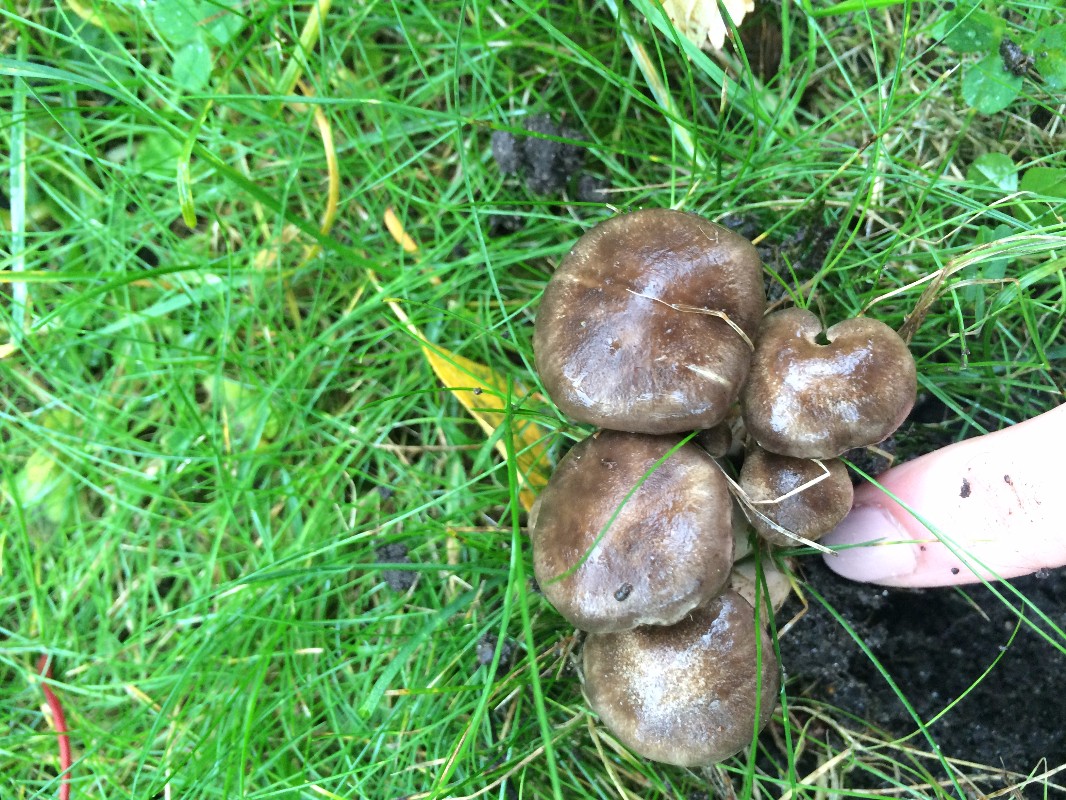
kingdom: Fungi
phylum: Basidiomycota
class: Agaricomycetes
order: Agaricales
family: Lyophyllaceae
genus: Lyophyllum
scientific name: Lyophyllum decastes
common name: røggrå gråblad
